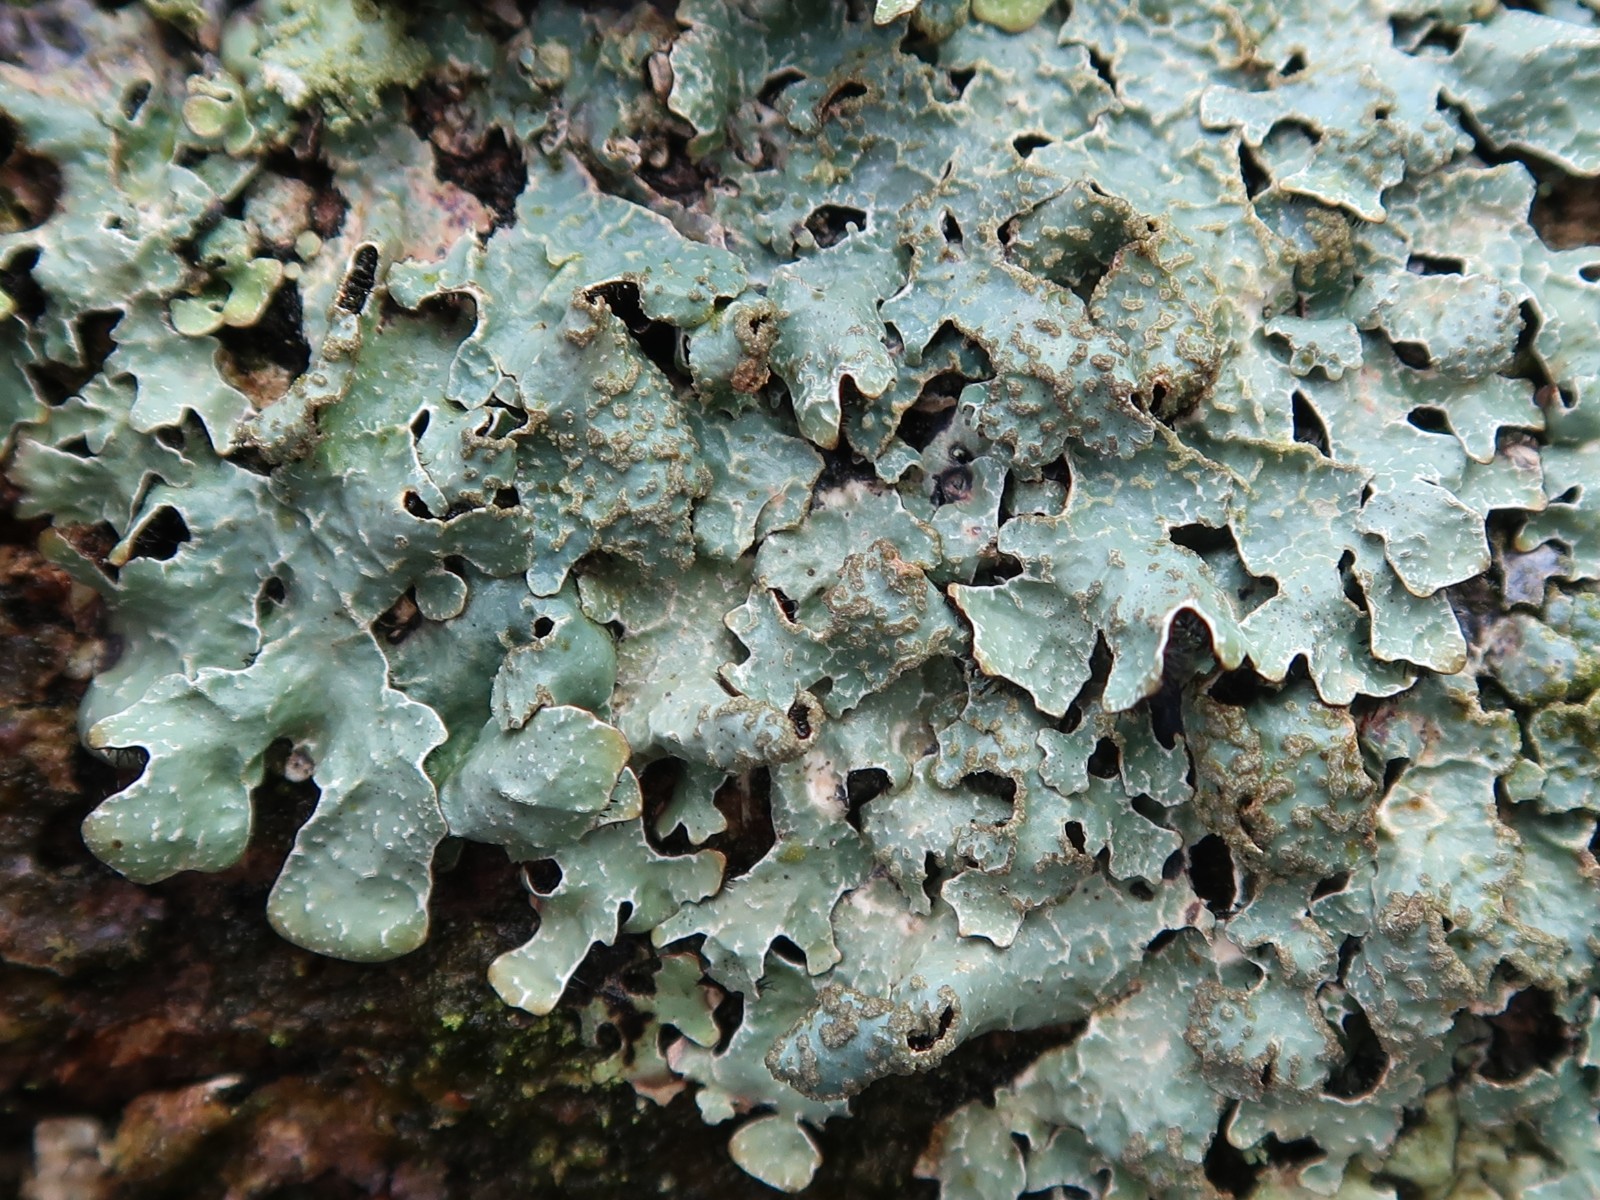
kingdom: Fungi
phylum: Ascomycota
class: Lecanoromycetes
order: Lecanorales
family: Parmeliaceae
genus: Parmelia
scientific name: Parmelia sulcata
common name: rynket skållav
